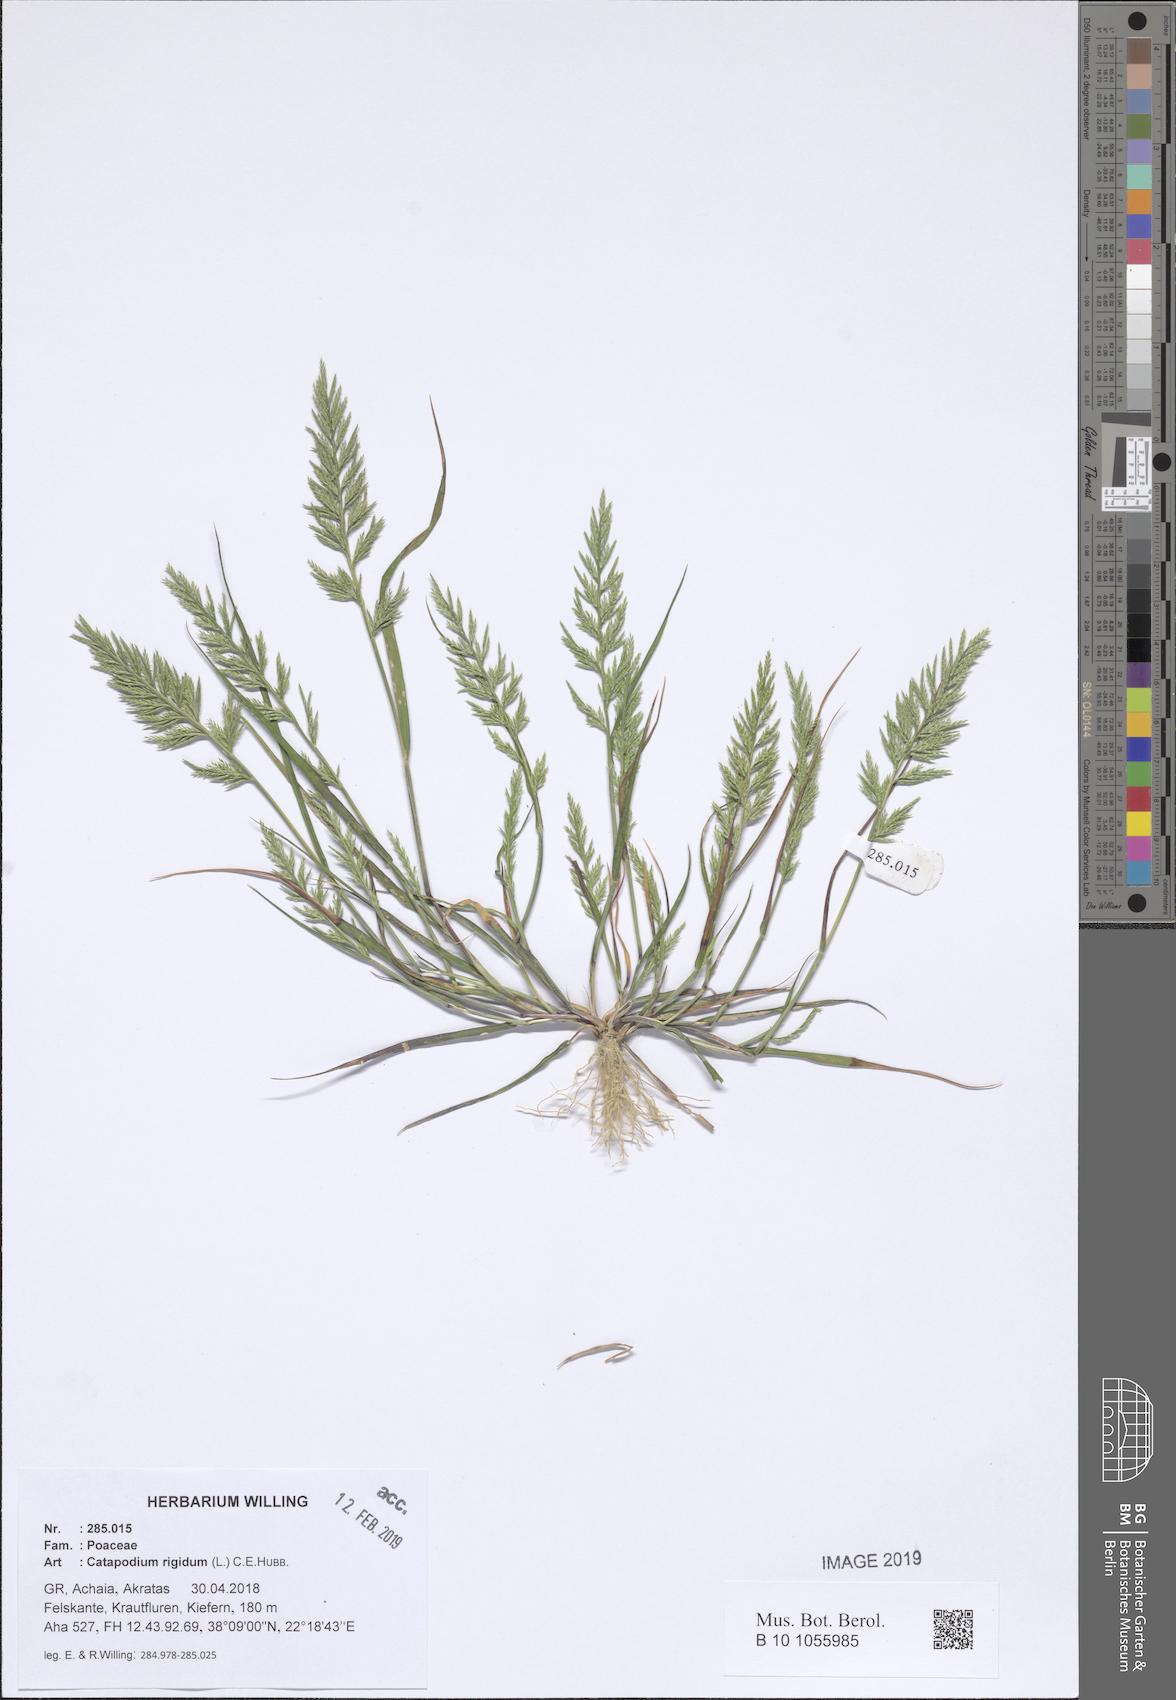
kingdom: Plantae
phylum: Tracheophyta
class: Liliopsida
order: Poales
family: Poaceae
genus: Catapodium
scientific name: Catapodium rigidum
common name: Fern-grass
